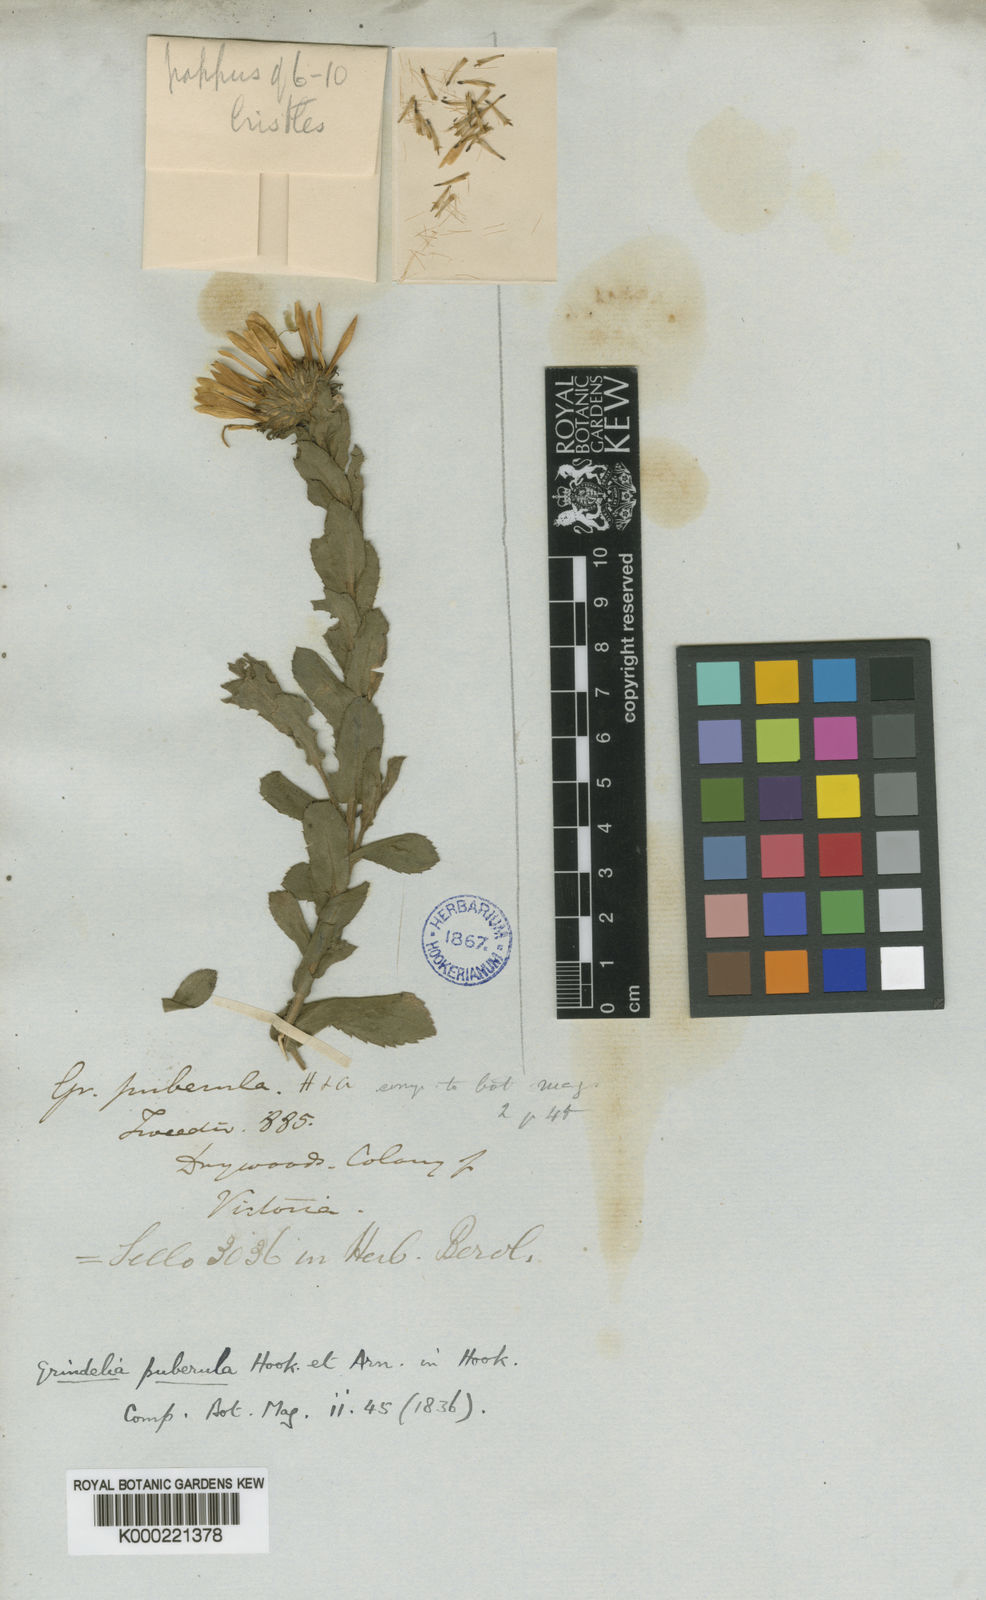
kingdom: Plantae
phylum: Tracheophyta
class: Magnoliopsida
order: Asterales
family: Asteraceae
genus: Grindelia
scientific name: Grindelia puberula
